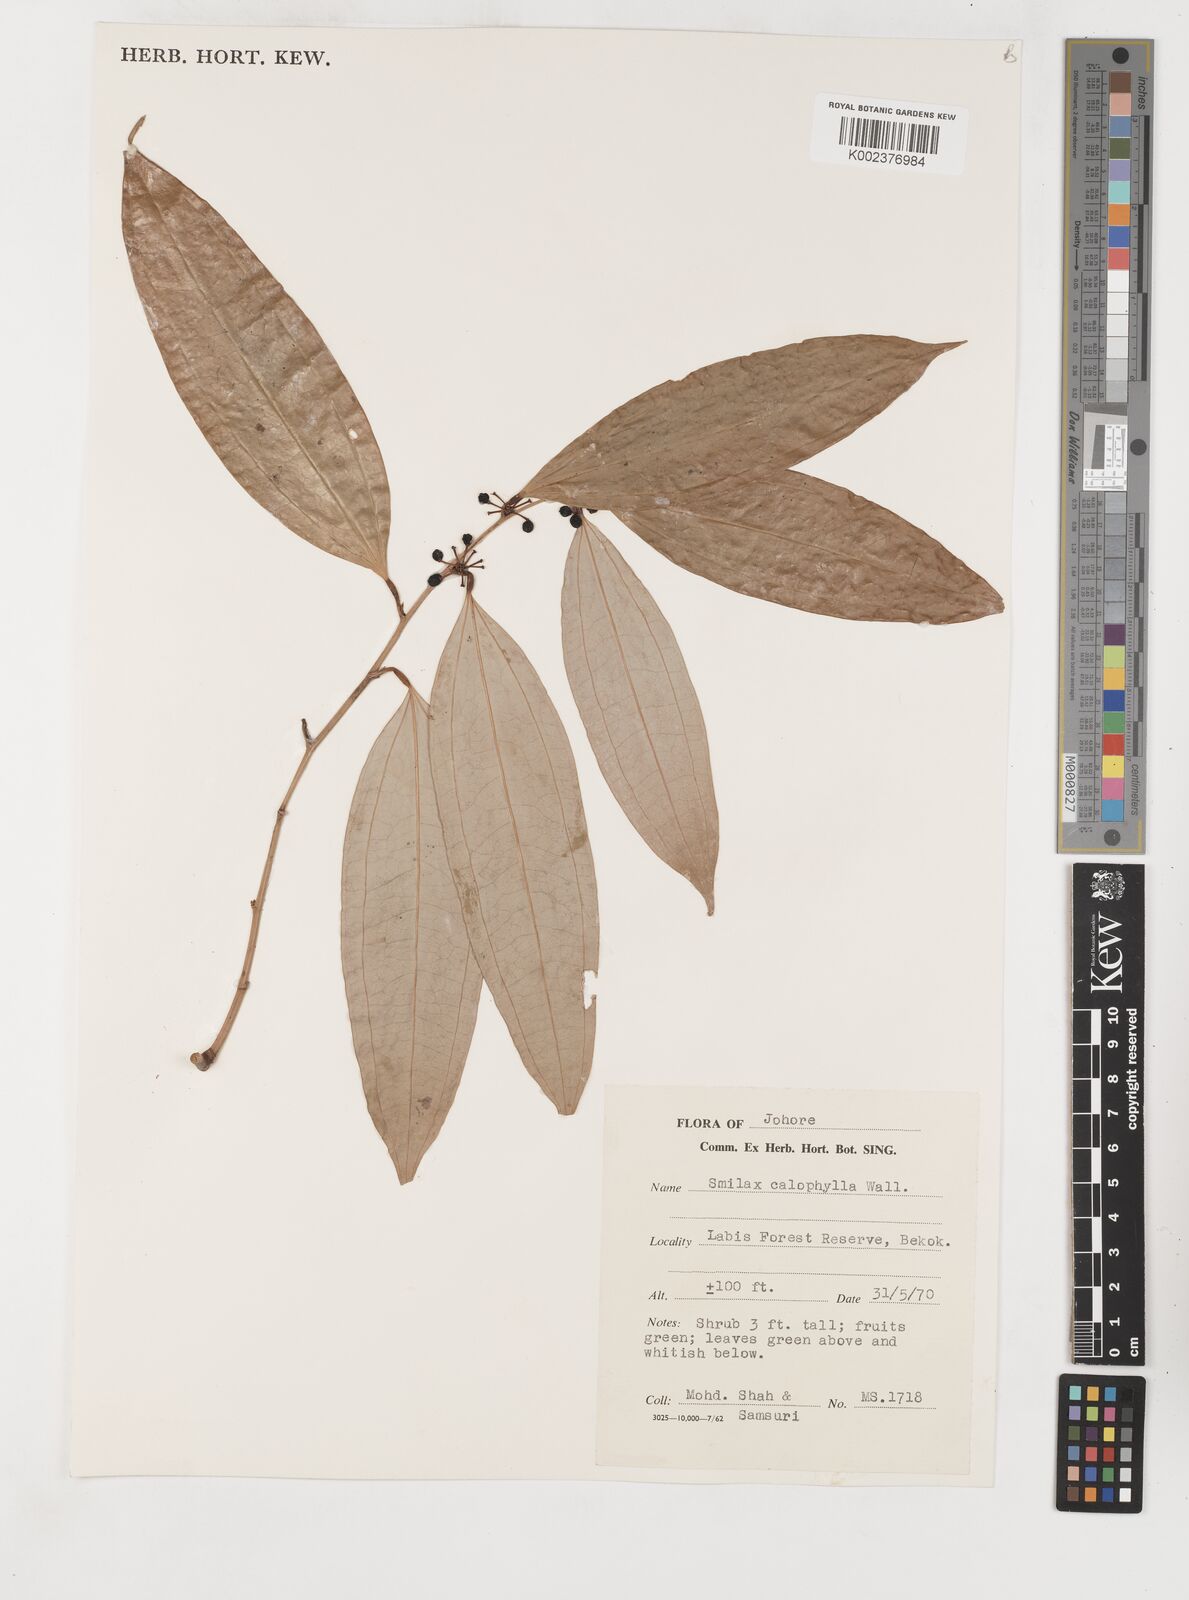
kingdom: Plantae
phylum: Tracheophyta
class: Liliopsida
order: Liliales
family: Smilacaceae
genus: Smilax
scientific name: Smilax calophylla
